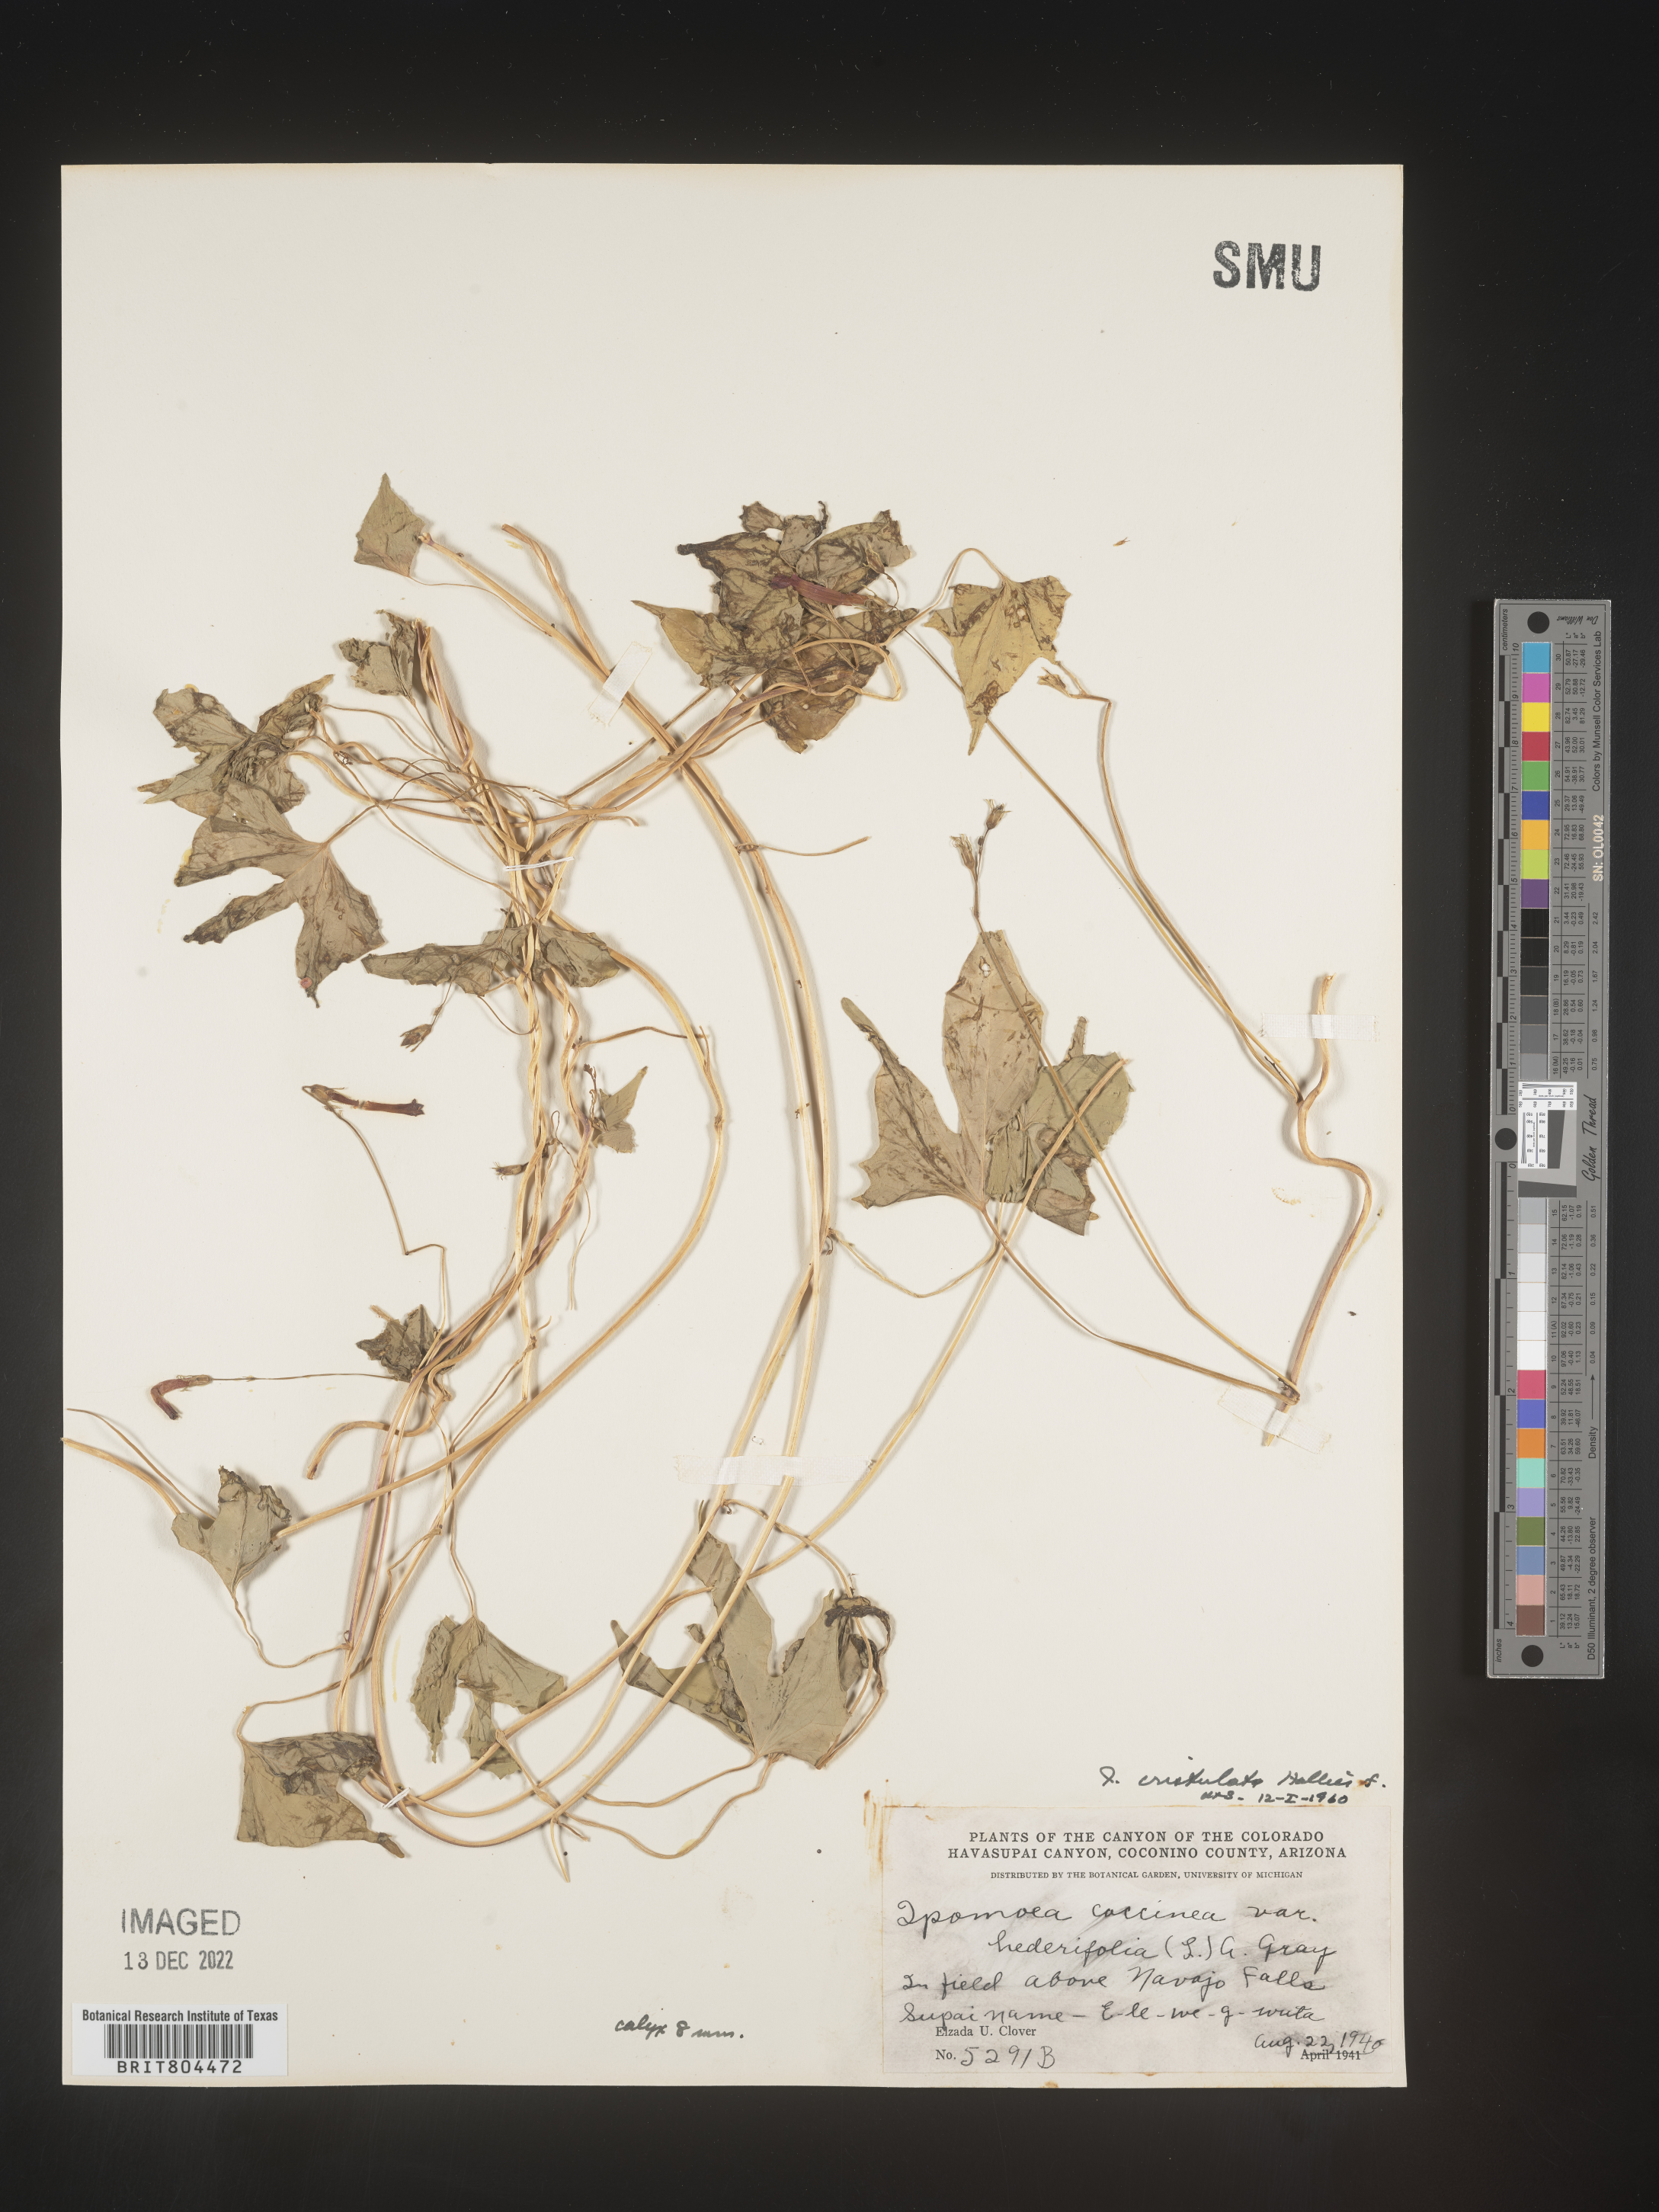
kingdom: Plantae
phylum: Tracheophyta
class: Magnoliopsida
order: Solanales
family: Convolvulaceae
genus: Ipomoea
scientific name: Ipomoea cristulata
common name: Trans-pecos morning-glory
